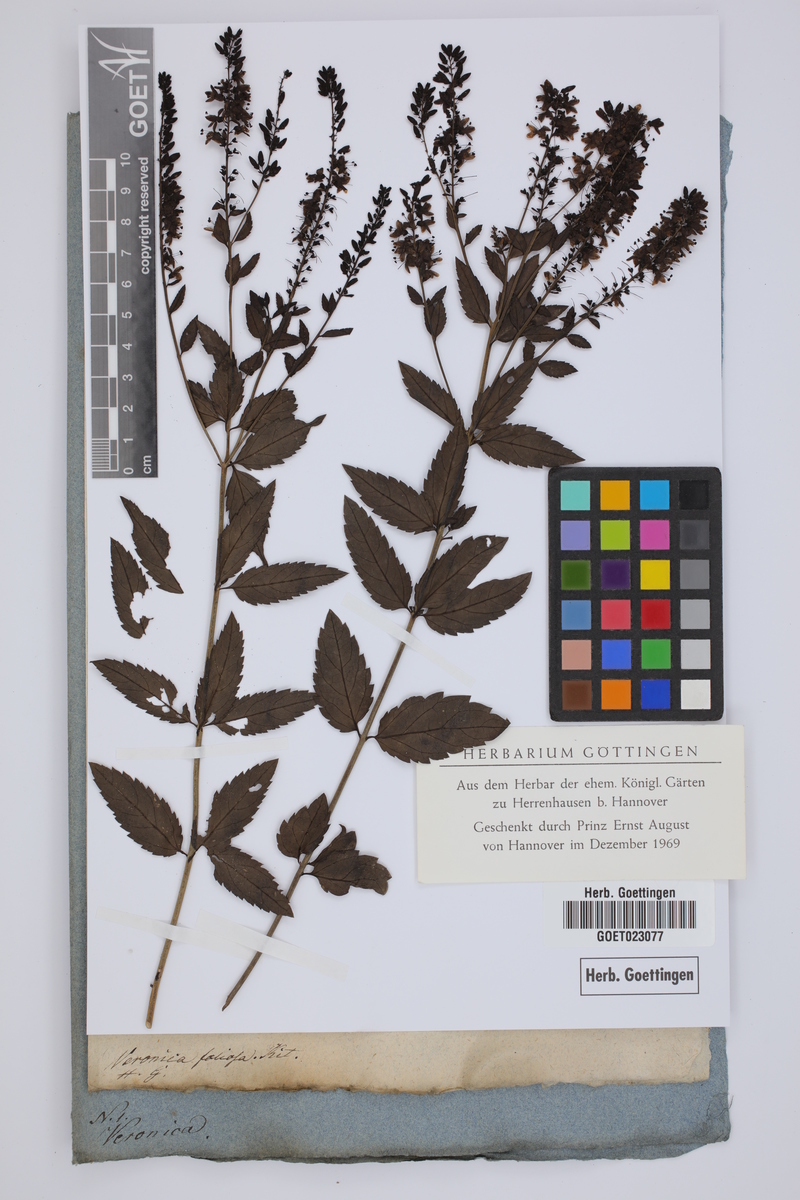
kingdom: Plantae
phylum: Tracheophyta
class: Magnoliopsida
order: Lamiales
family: Plantaginaceae
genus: Veronica
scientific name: Veronica spuria
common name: Bastard speedwell
